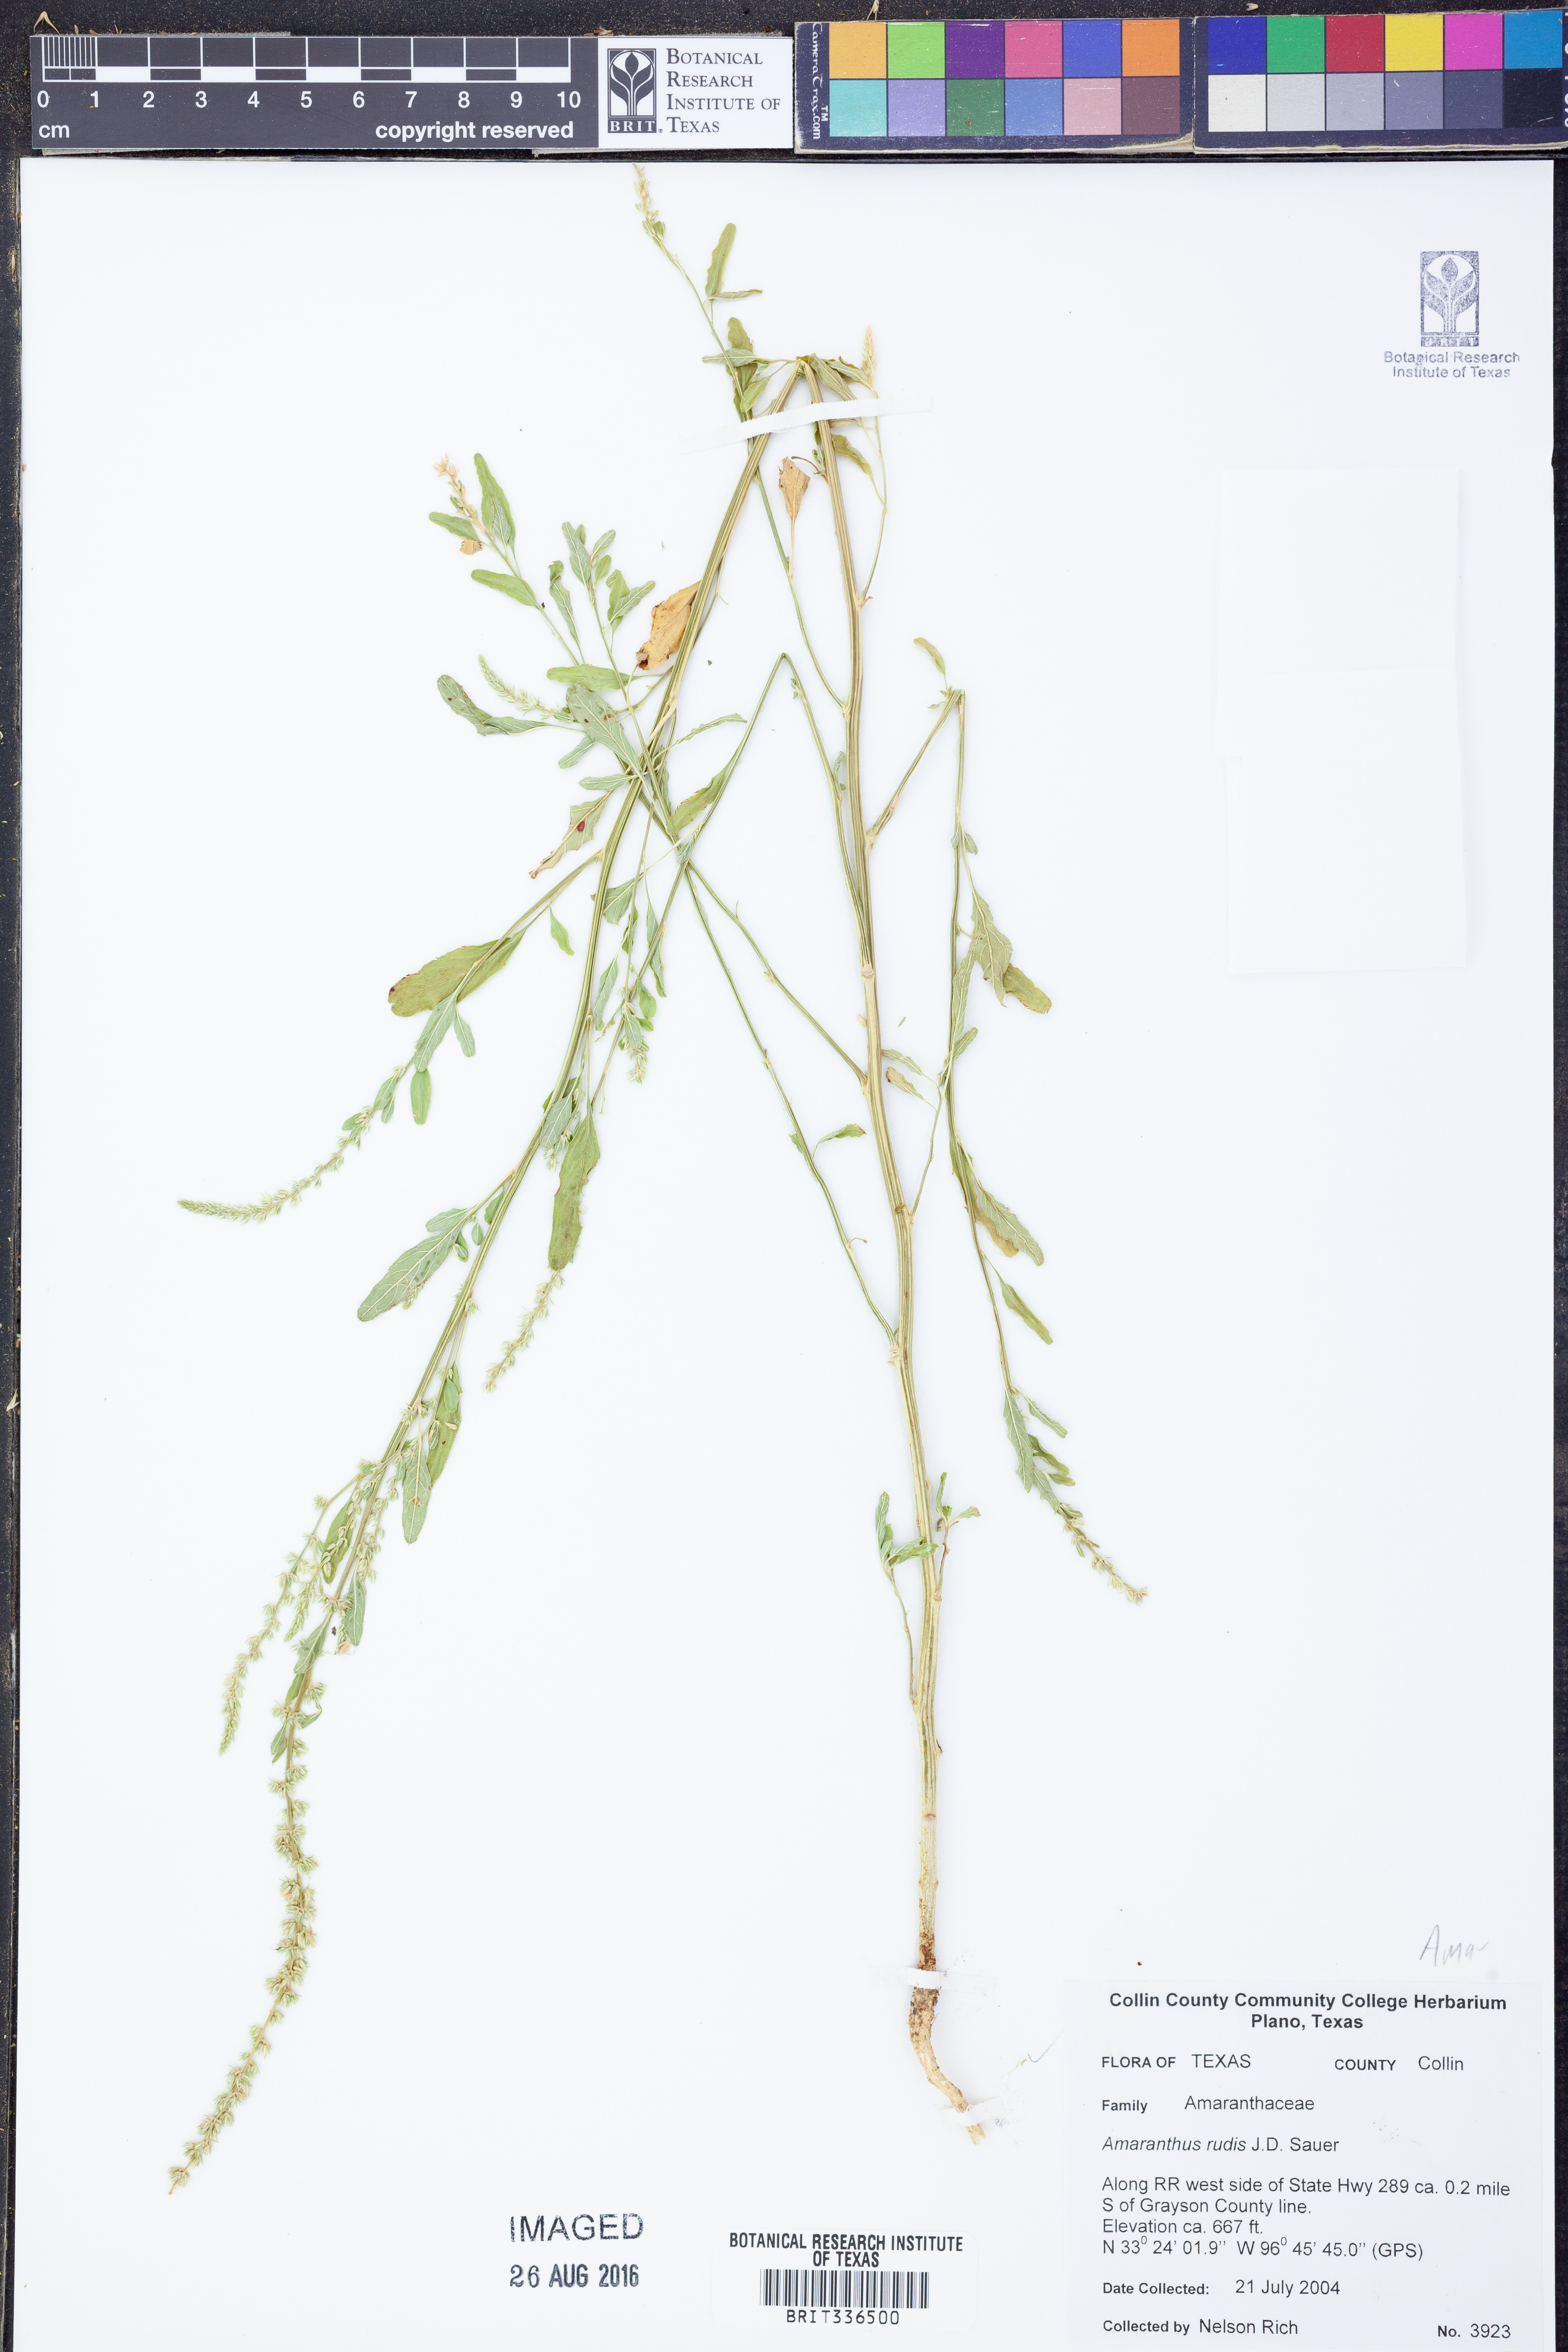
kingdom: Plantae
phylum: Tracheophyta
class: Magnoliopsida
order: Caryophyllales
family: Amaranthaceae
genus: Amaranthus
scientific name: Amaranthus tuberculatus
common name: Rough-fruit amaranth
